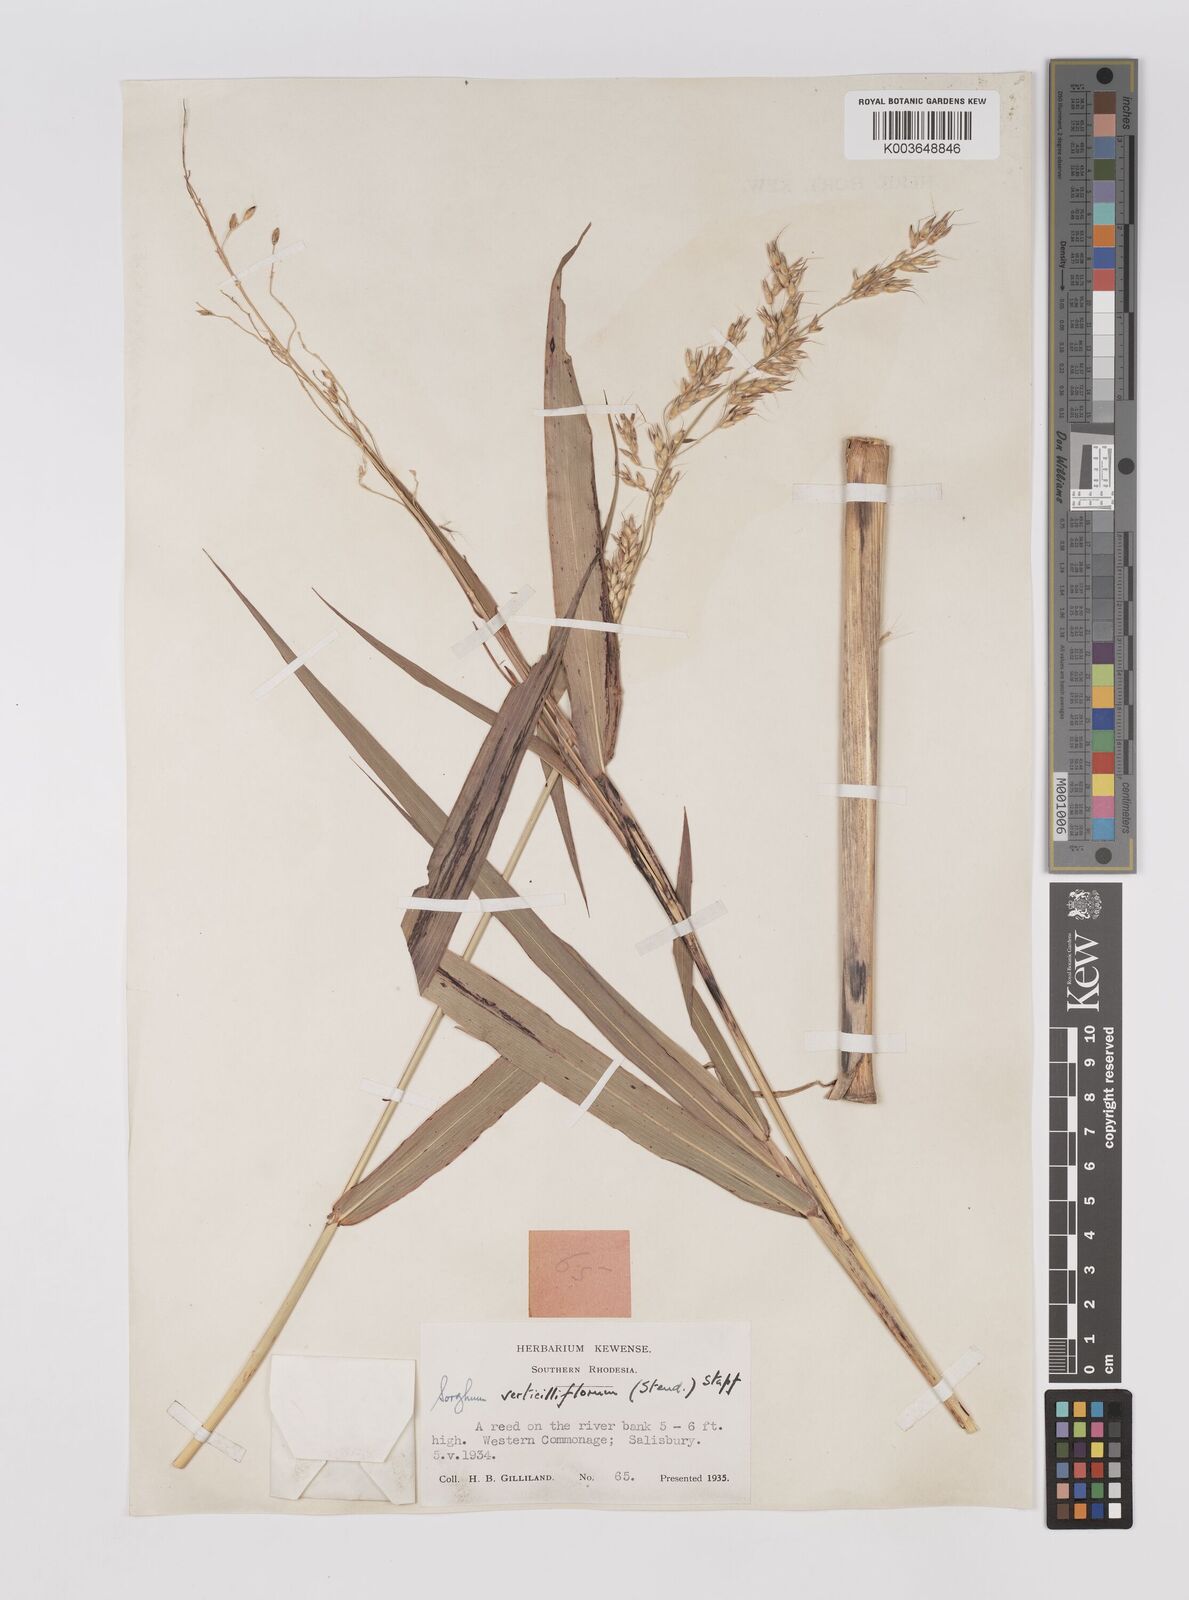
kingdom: Plantae
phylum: Tracheophyta
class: Liliopsida
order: Poales
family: Poaceae
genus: Sorghum
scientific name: Sorghum arundinaceum
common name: Sorghum
